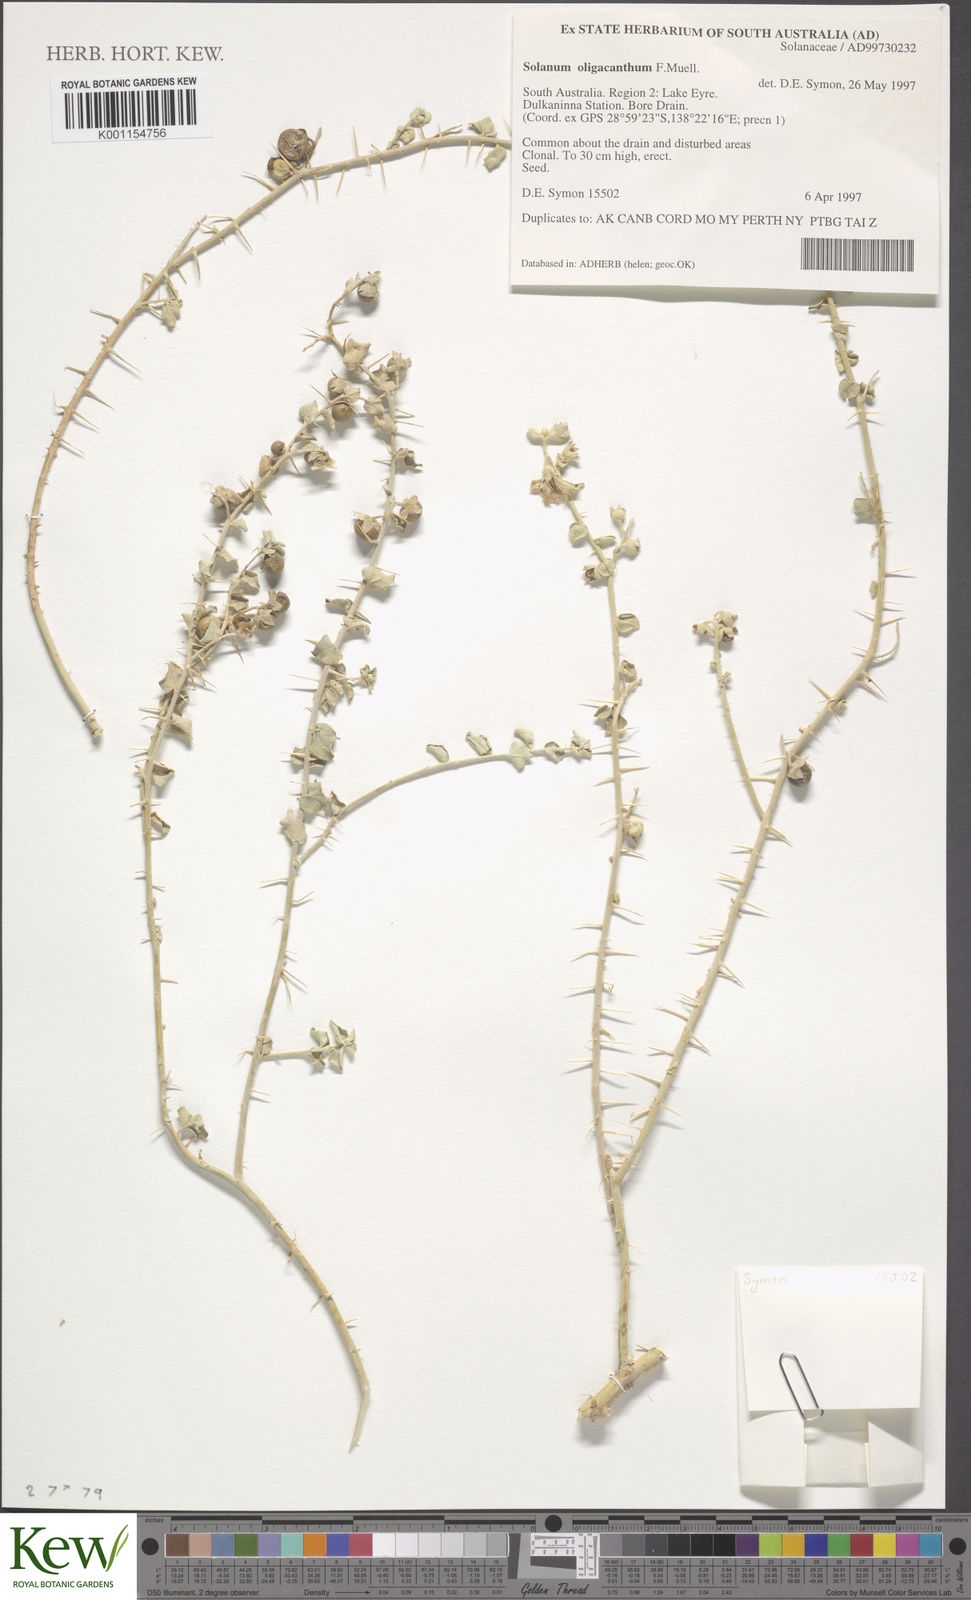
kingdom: Plantae
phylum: Tracheophyta
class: Magnoliopsida
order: Solanales
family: Solanaceae
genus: Solanum
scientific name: Solanum oligacanthum
